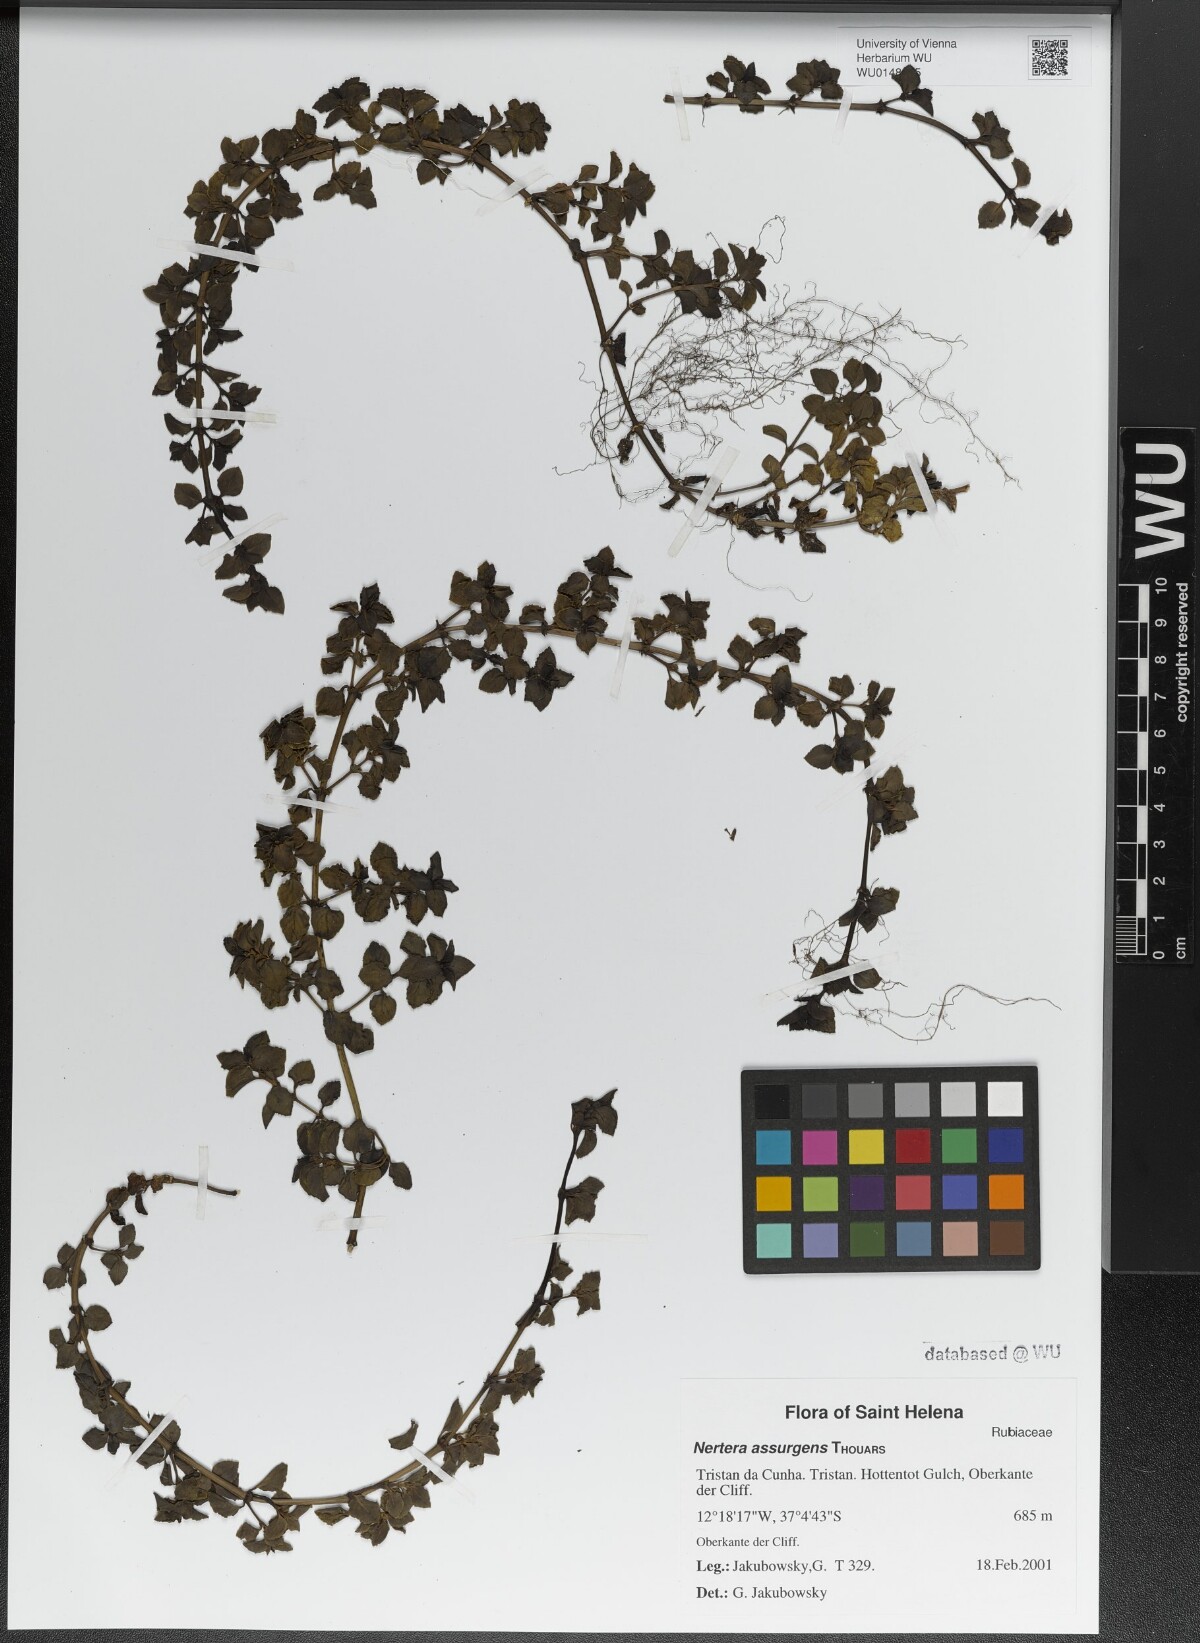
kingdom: Plantae
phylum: Tracheophyta
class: Magnoliopsida
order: Gentianales
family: Rubiaceae
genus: Nertera
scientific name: Nertera granadensis
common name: Beadplant
